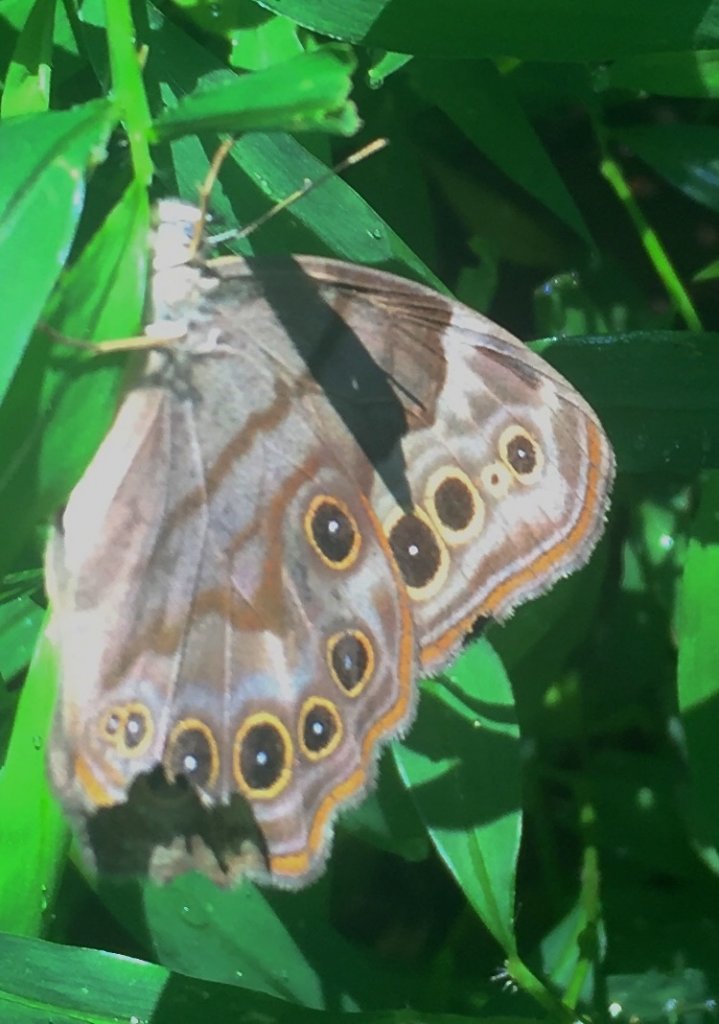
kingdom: Animalia
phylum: Arthropoda
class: Insecta
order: Lepidoptera
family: Nymphalidae
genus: Lethe
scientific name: Lethe anthedon
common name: Northern Pearly-Eye
